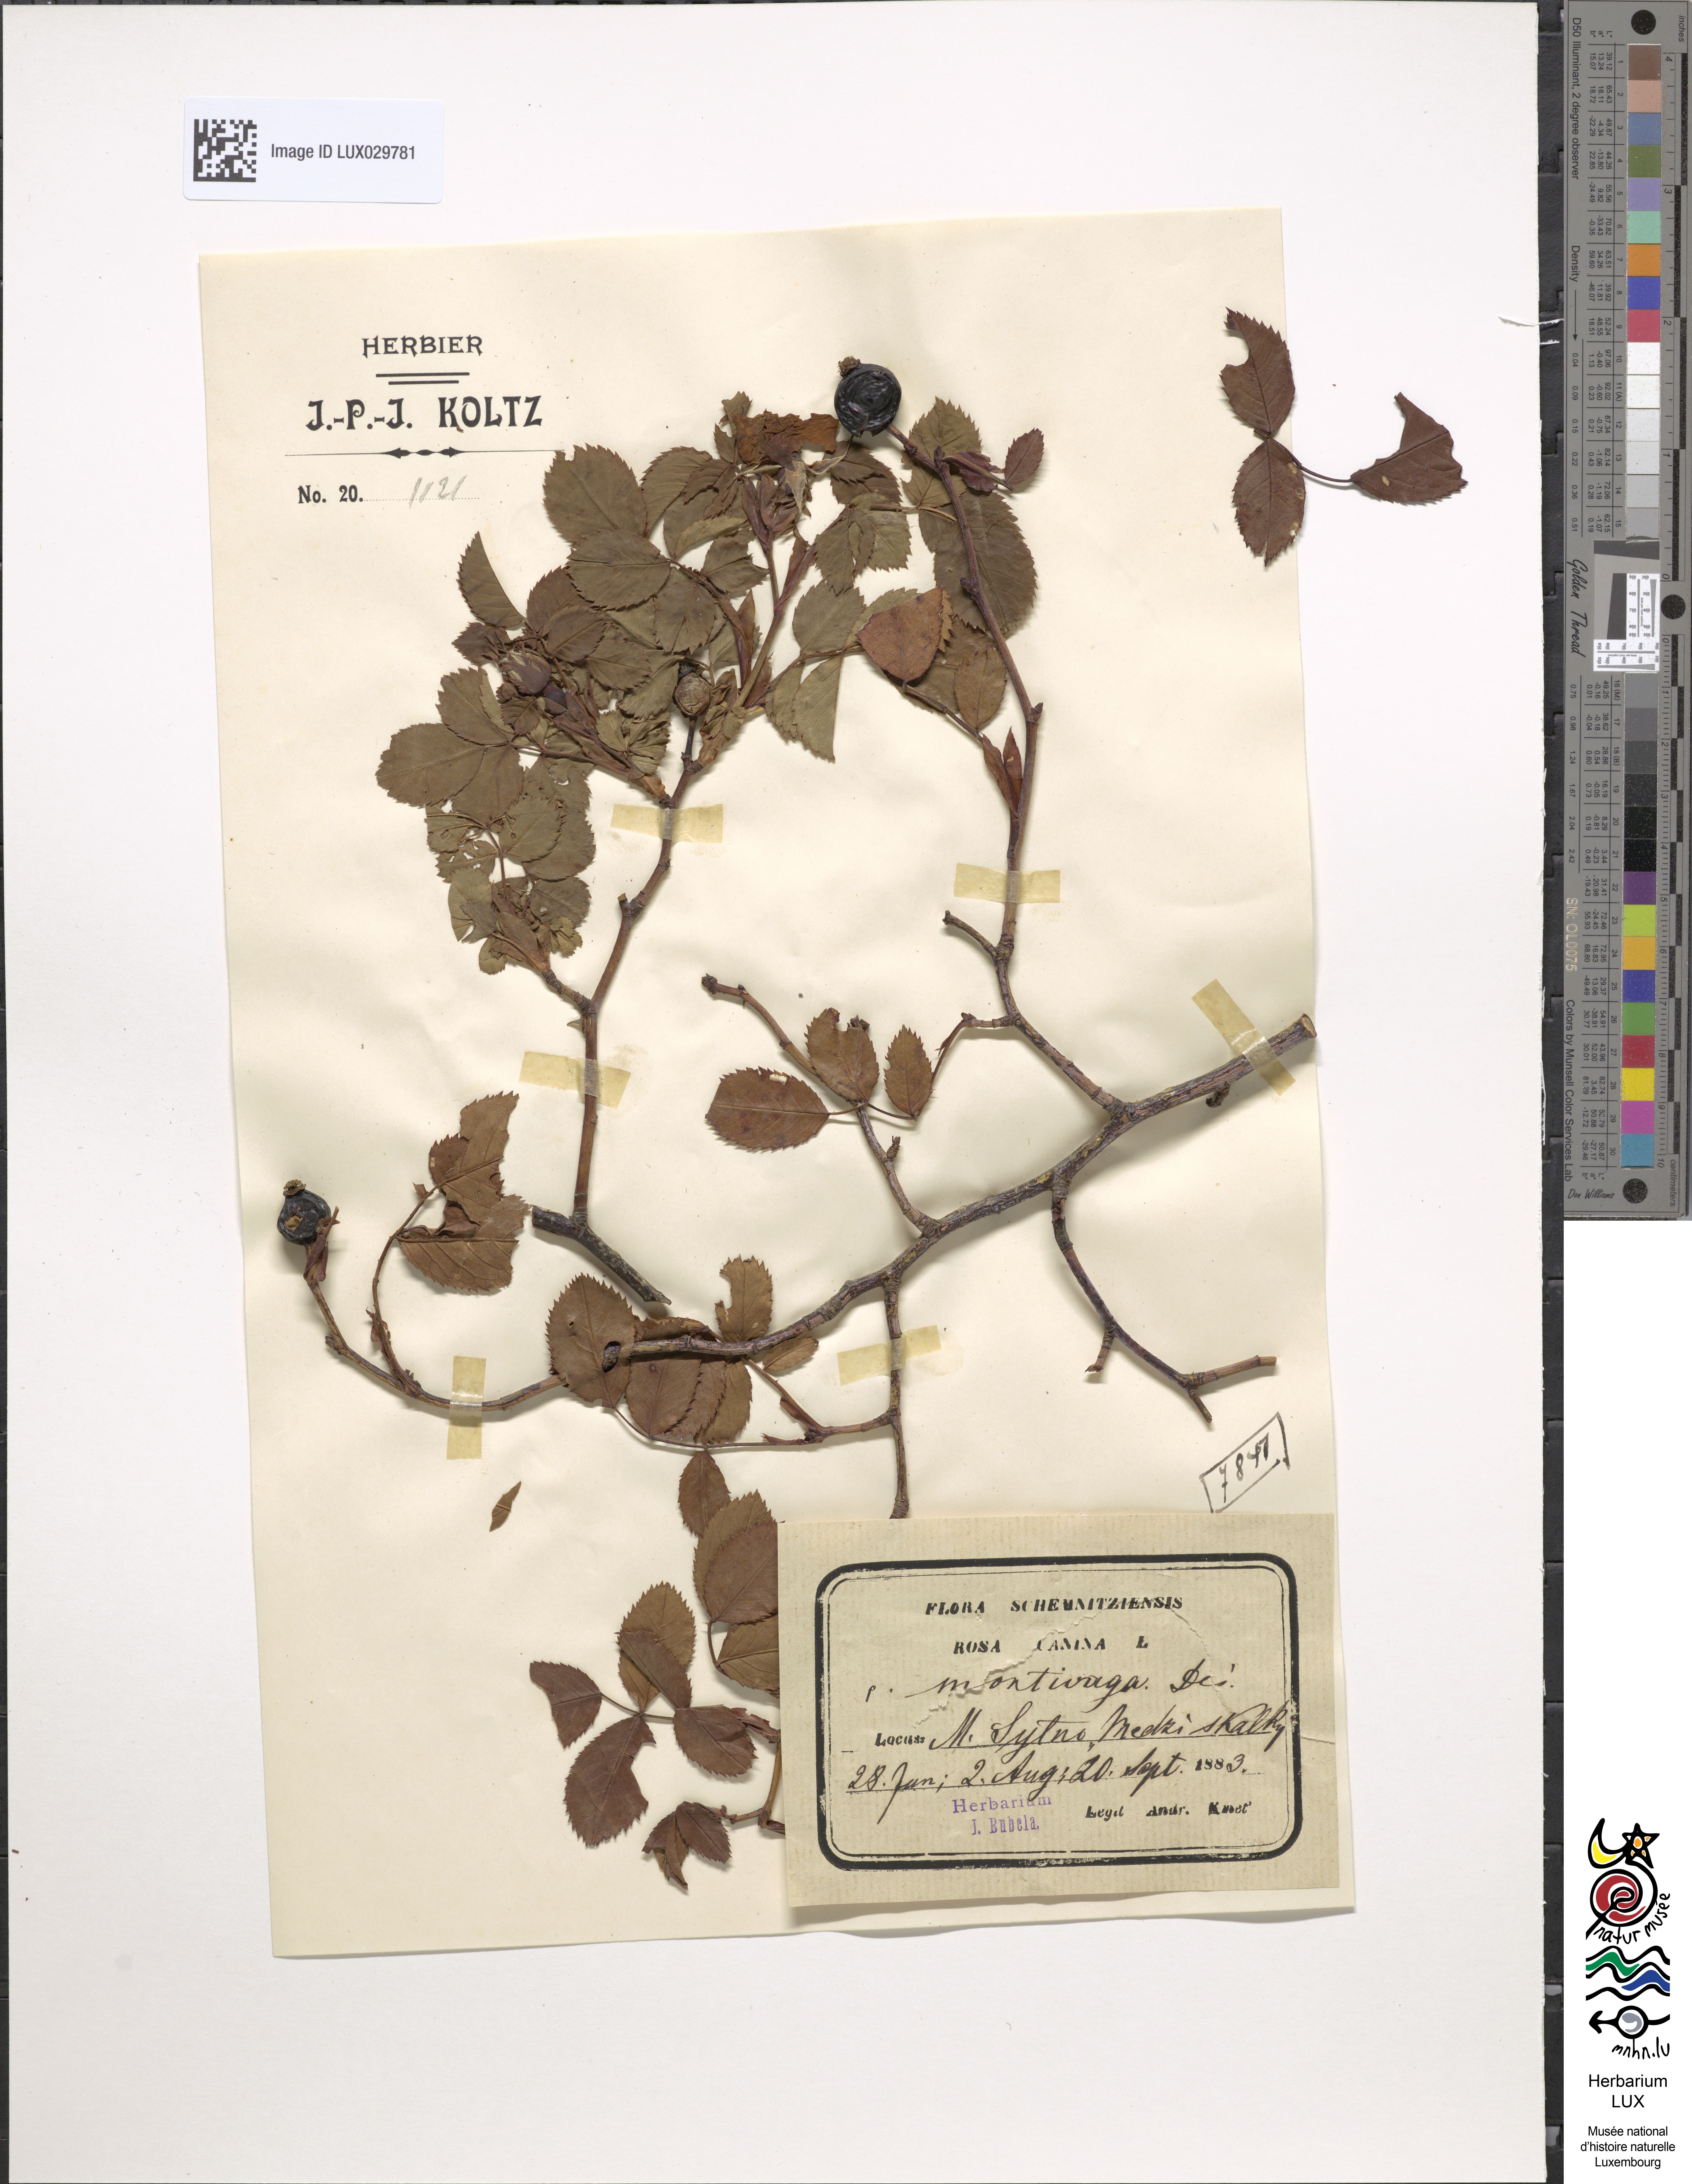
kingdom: Plantae
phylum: Tracheophyta
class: Magnoliopsida
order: Rosales
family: Rosaceae
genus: Rosa
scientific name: Rosa canina
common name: Dog rose
